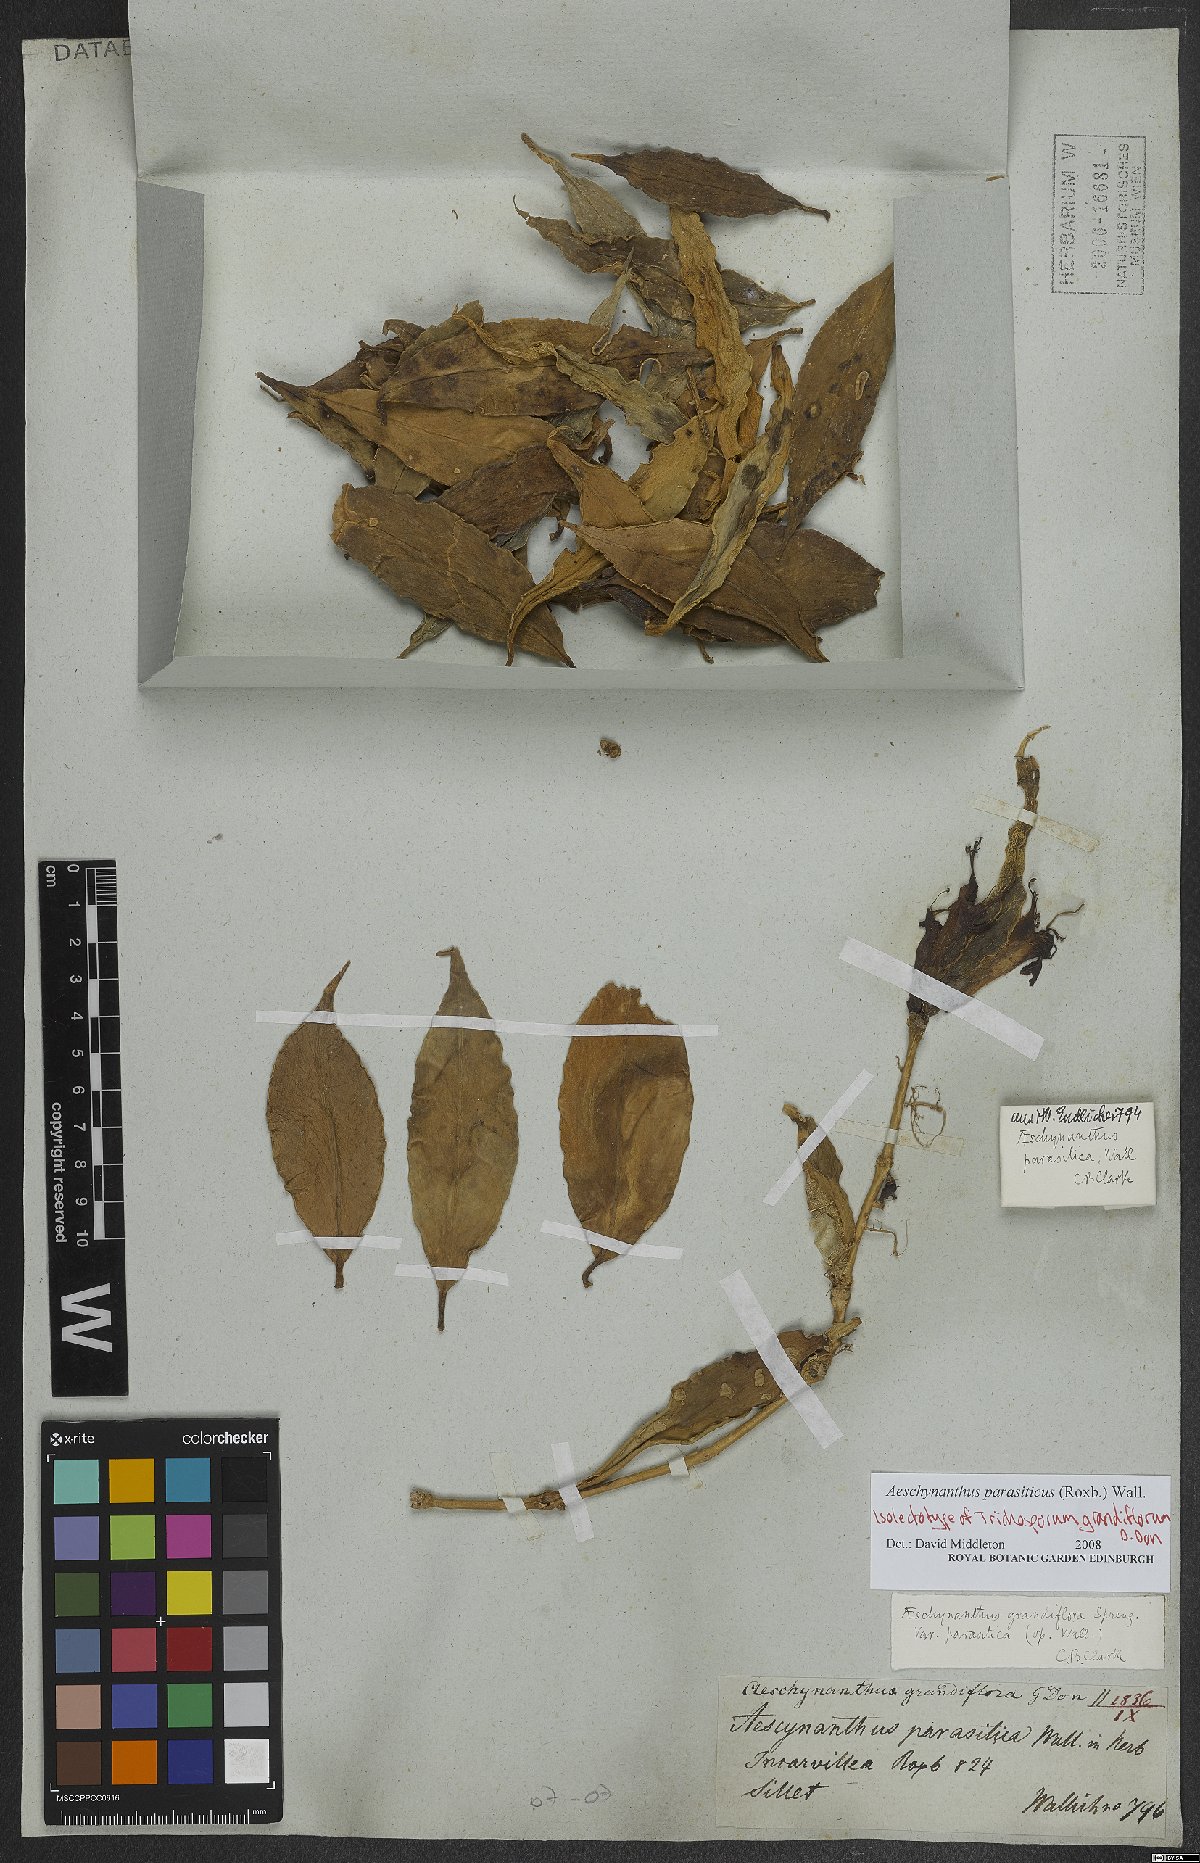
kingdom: Plantae
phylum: Tracheophyta
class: Magnoliopsida
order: Lamiales
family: Gesneriaceae
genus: Aeschynanthus
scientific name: Aeschynanthus parasiticus
